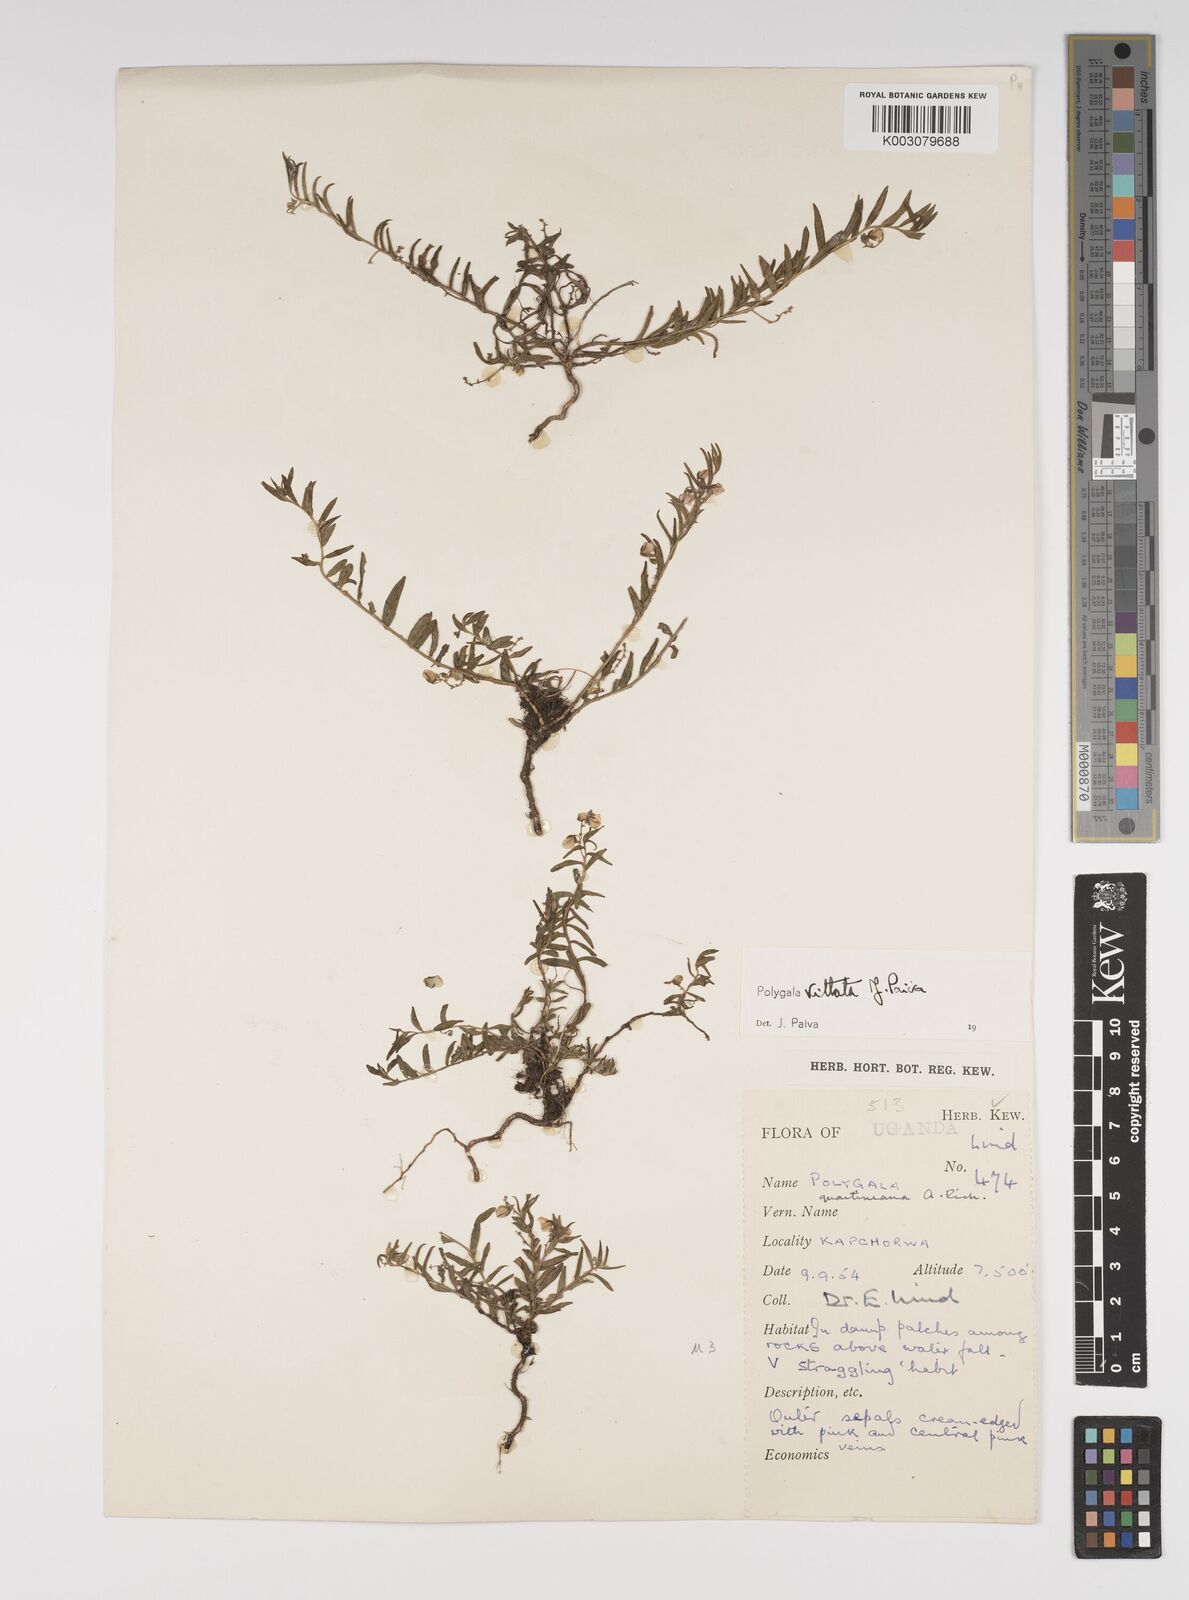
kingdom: Plantae
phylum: Tracheophyta
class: Magnoliopsida
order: Fabales
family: Polygalaceae
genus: Polygala
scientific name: Polygala vittata
